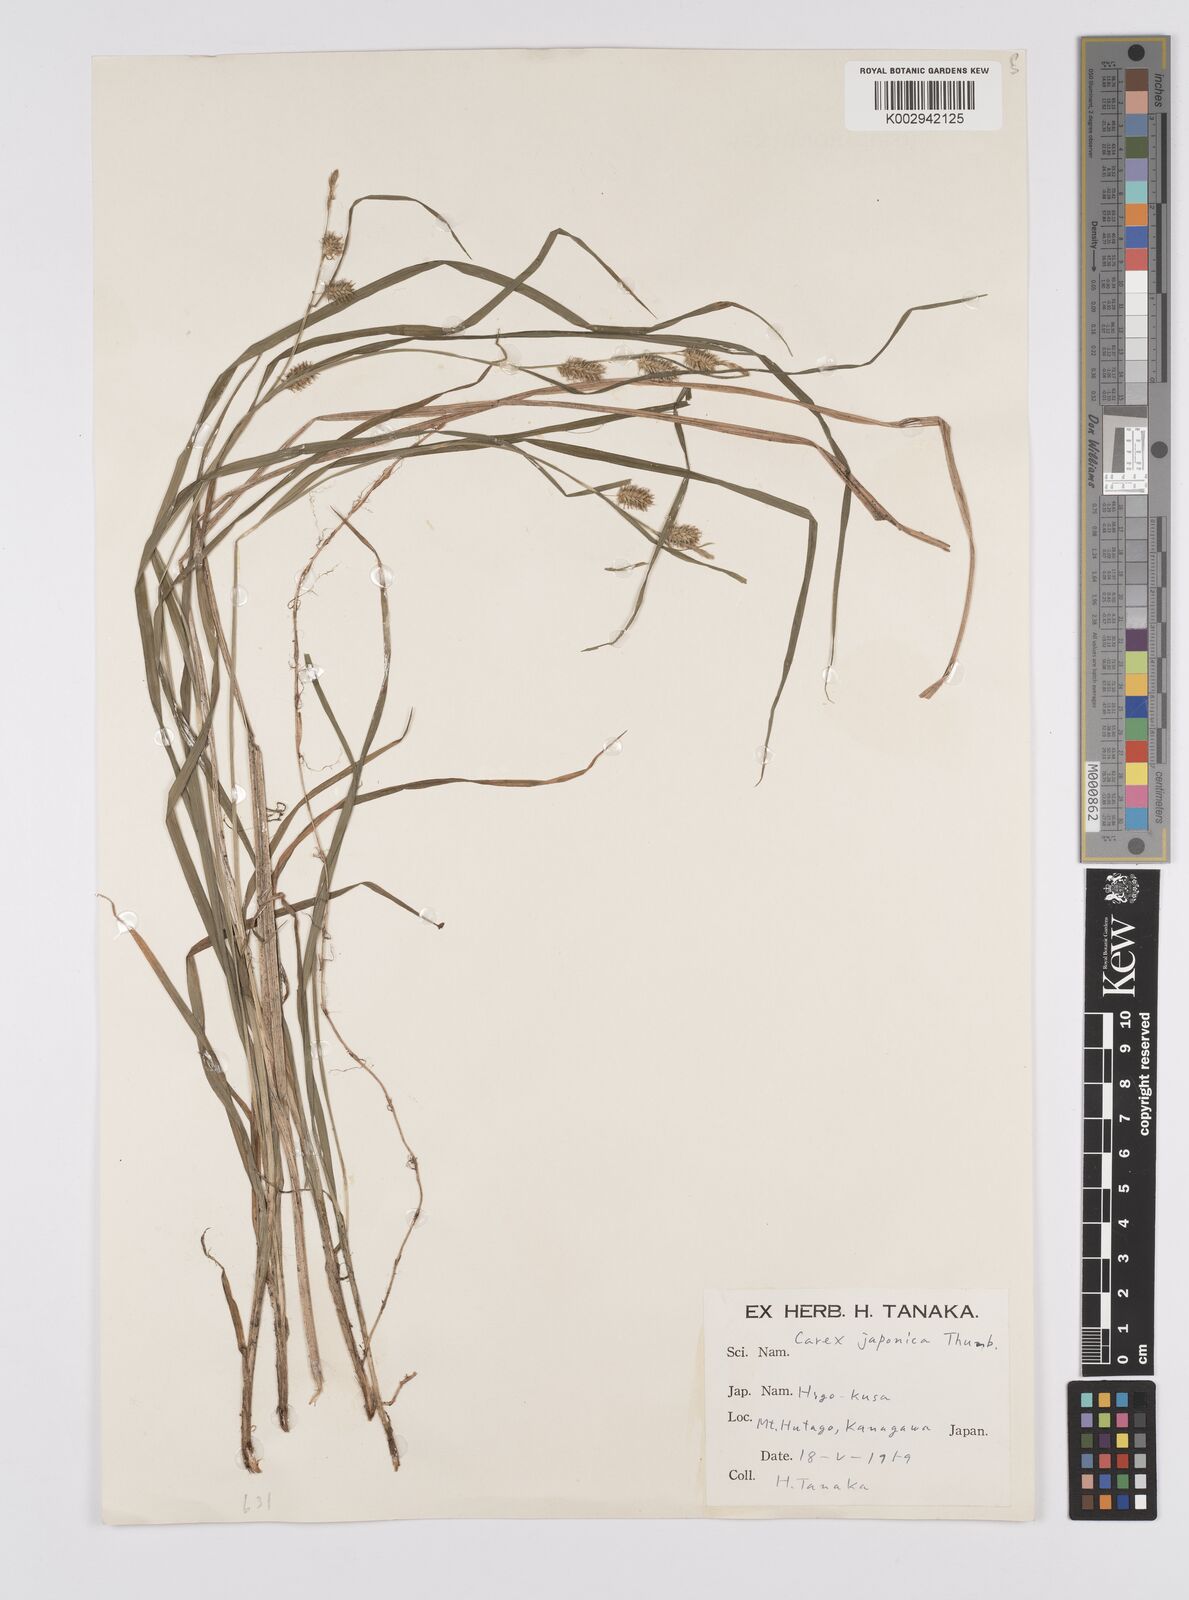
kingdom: Plantae
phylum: Tracheophyta
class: Liliopsida
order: Poales
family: Cyperaceae
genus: Carex
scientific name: Carex japonica
